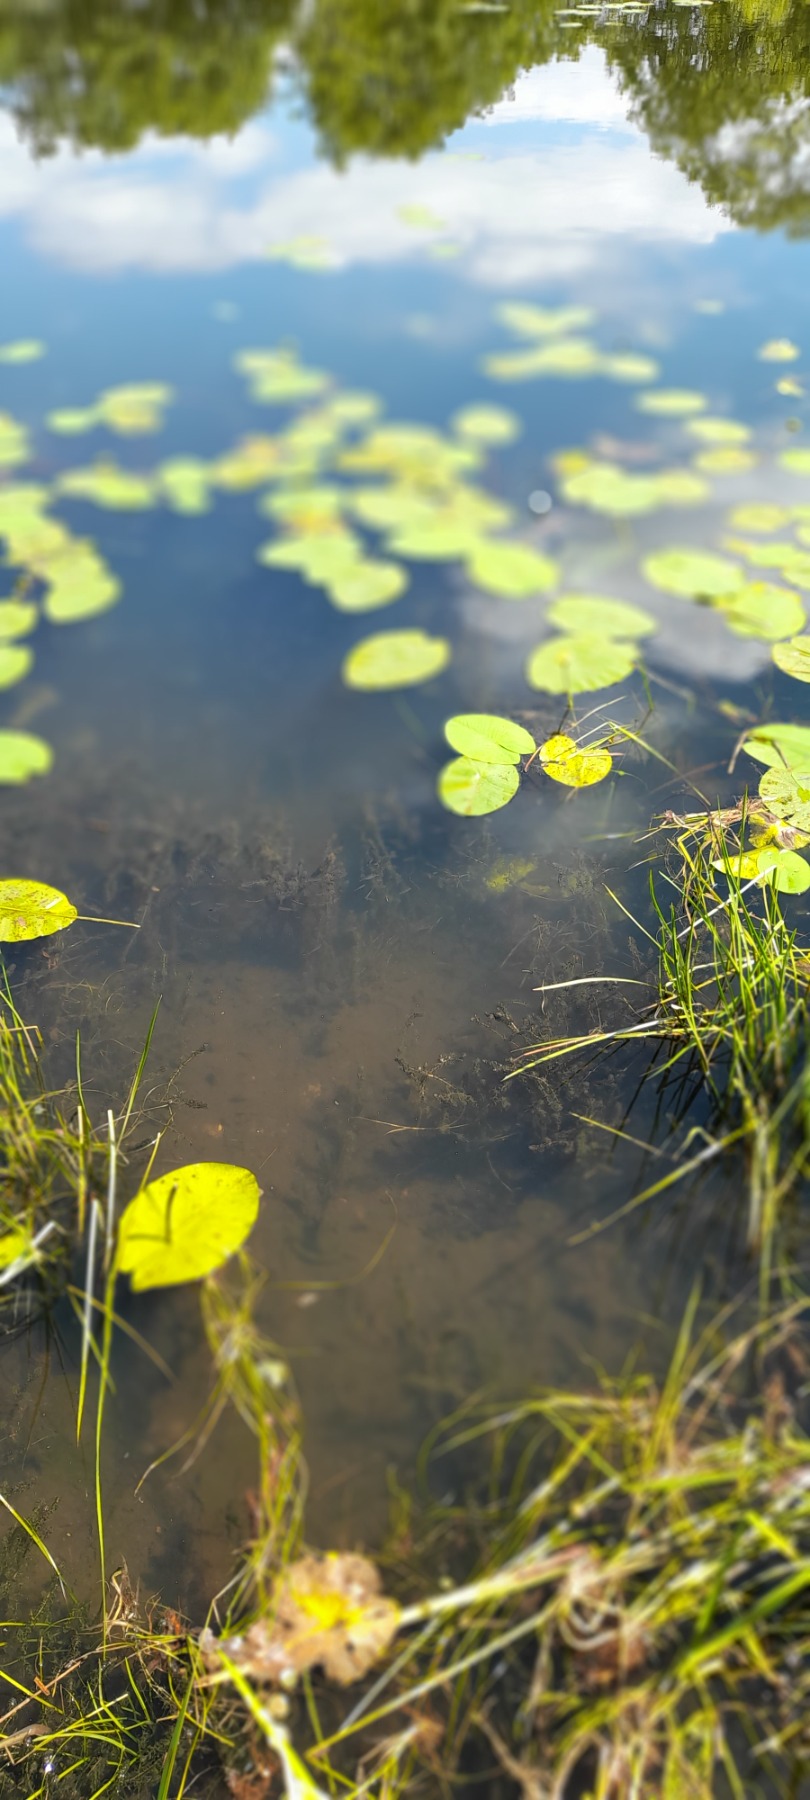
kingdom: Plantae
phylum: Tracheophyta
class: Magnoliopsida
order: Nymphaeales
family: Nymphaeaceae
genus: Nuphar
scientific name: Nuphar lutea
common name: Gul åkande
